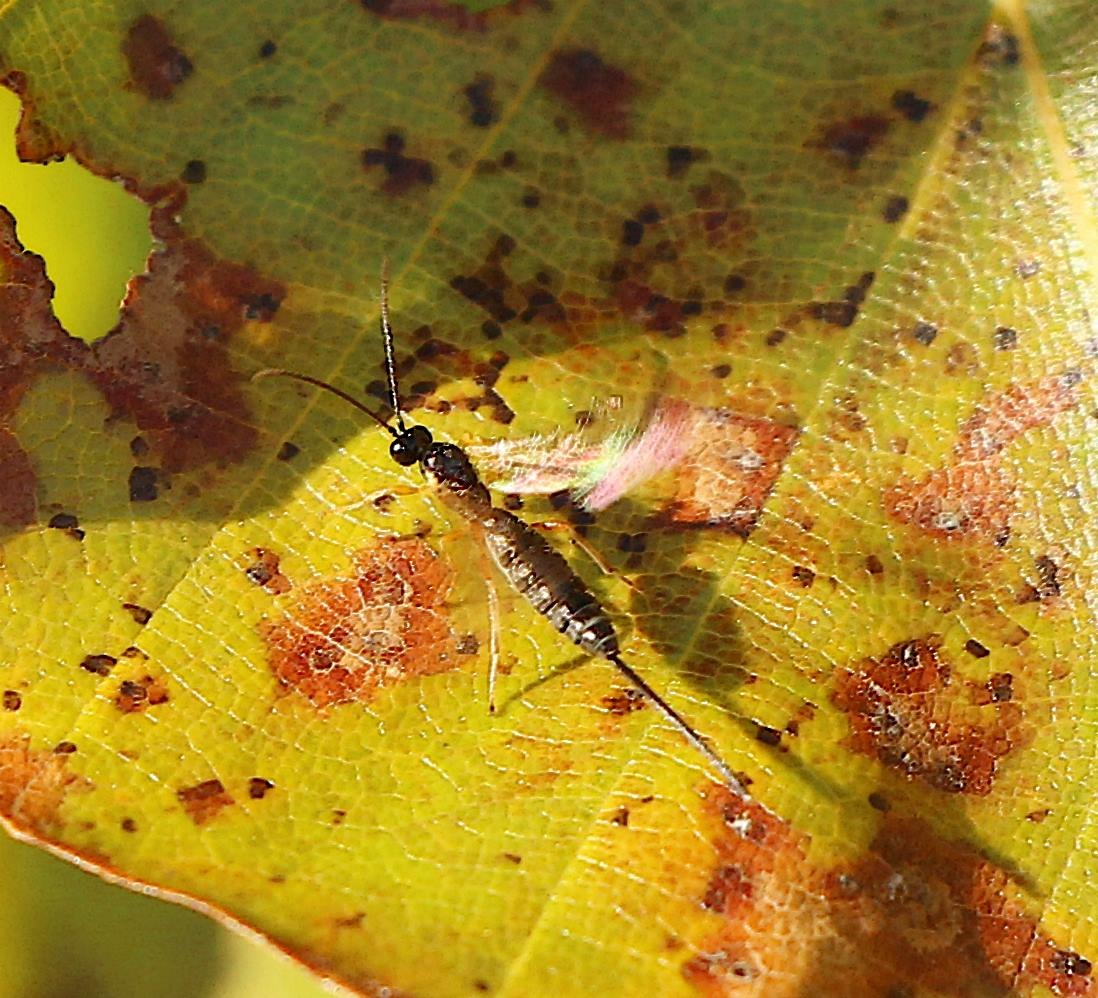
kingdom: Animalia
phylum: Arthropoda
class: Insecta
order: Hymenoptera
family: Ichneumonidae
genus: Scambus
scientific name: Scambus calobatus
